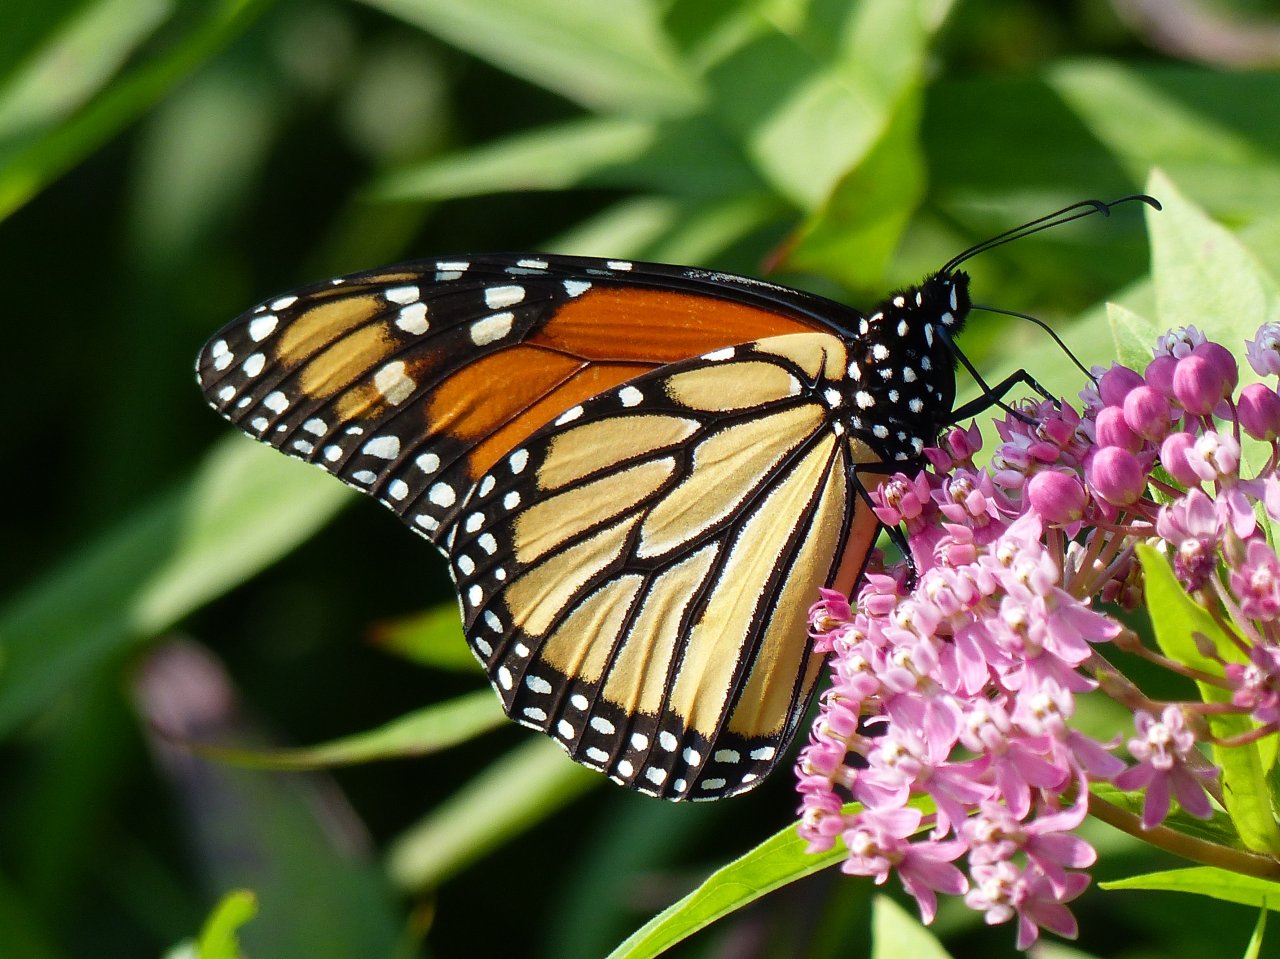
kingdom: Animalia
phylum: Arthropoda
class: Insecta
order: Lepidoptera
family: Nymphalidae
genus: Danaus
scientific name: Danaus plexippus
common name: Monarch
